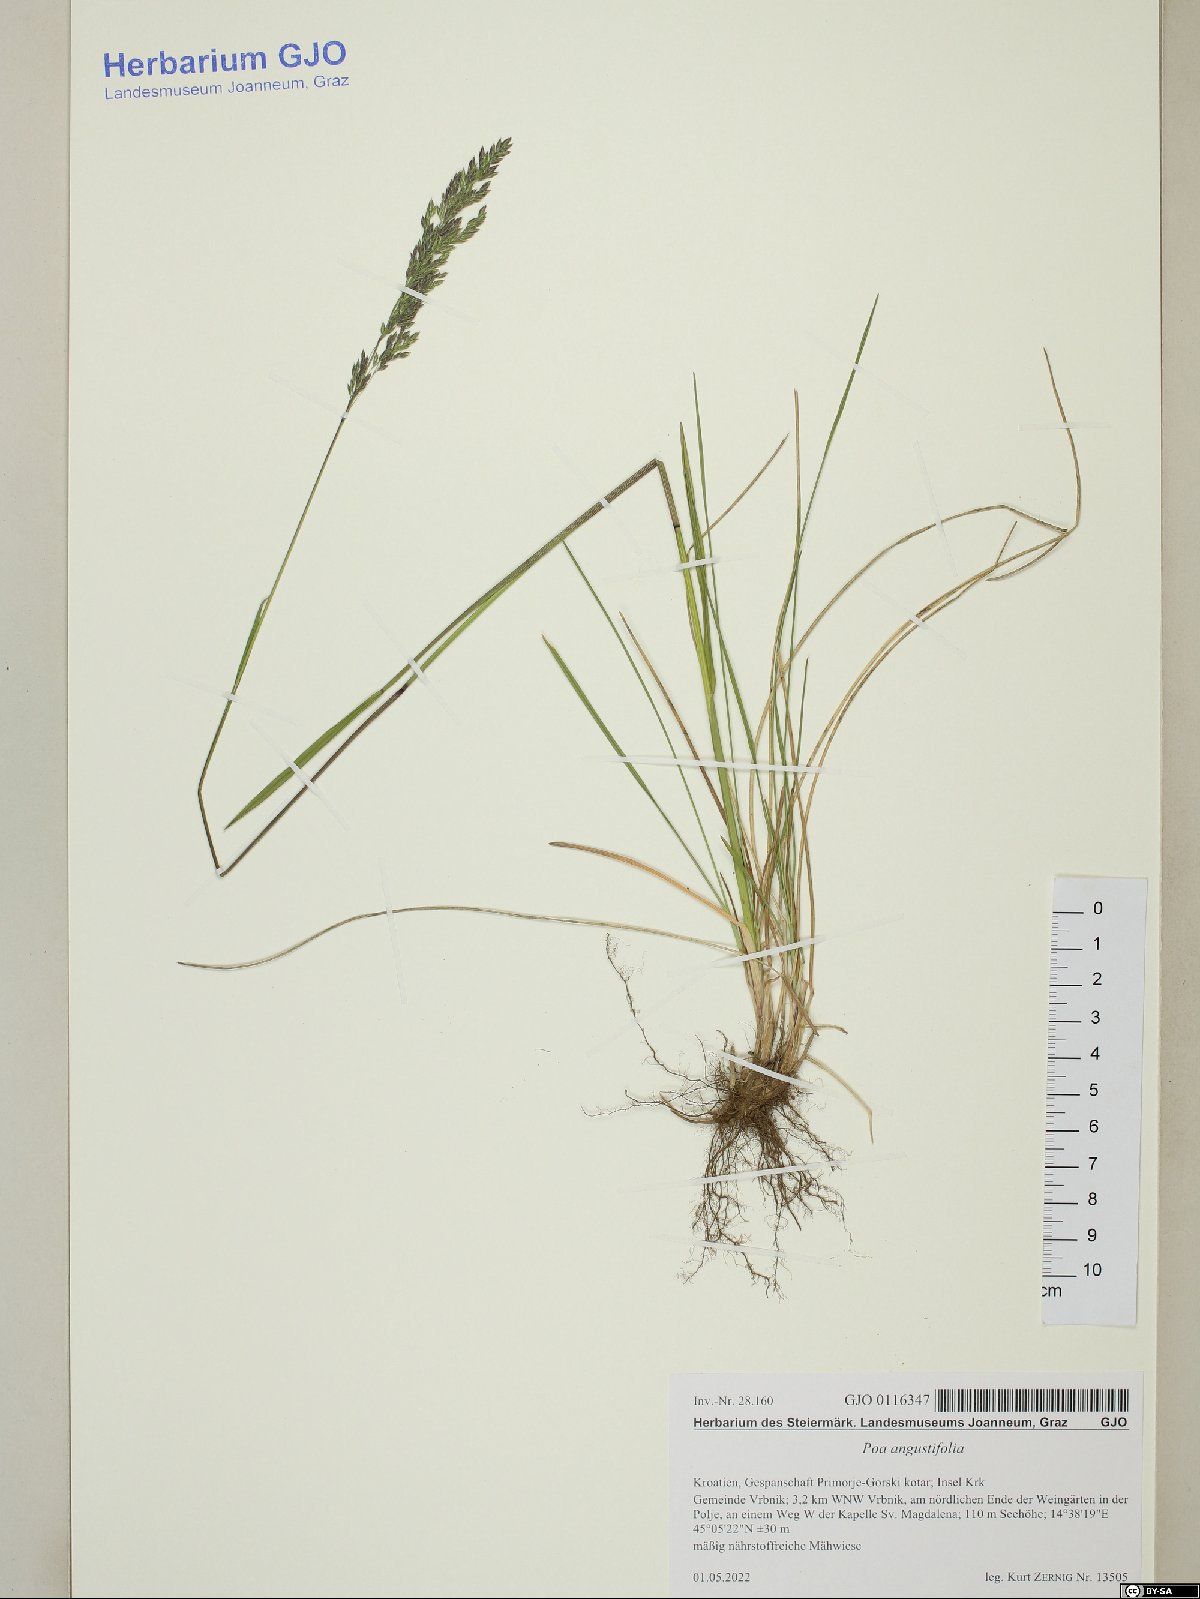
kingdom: Plantae
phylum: Tracheophyta
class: Liliopsida
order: Poales
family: Poaceae
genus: Poa
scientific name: Poa angustifolia
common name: Narrow-leaved meadow-grass
